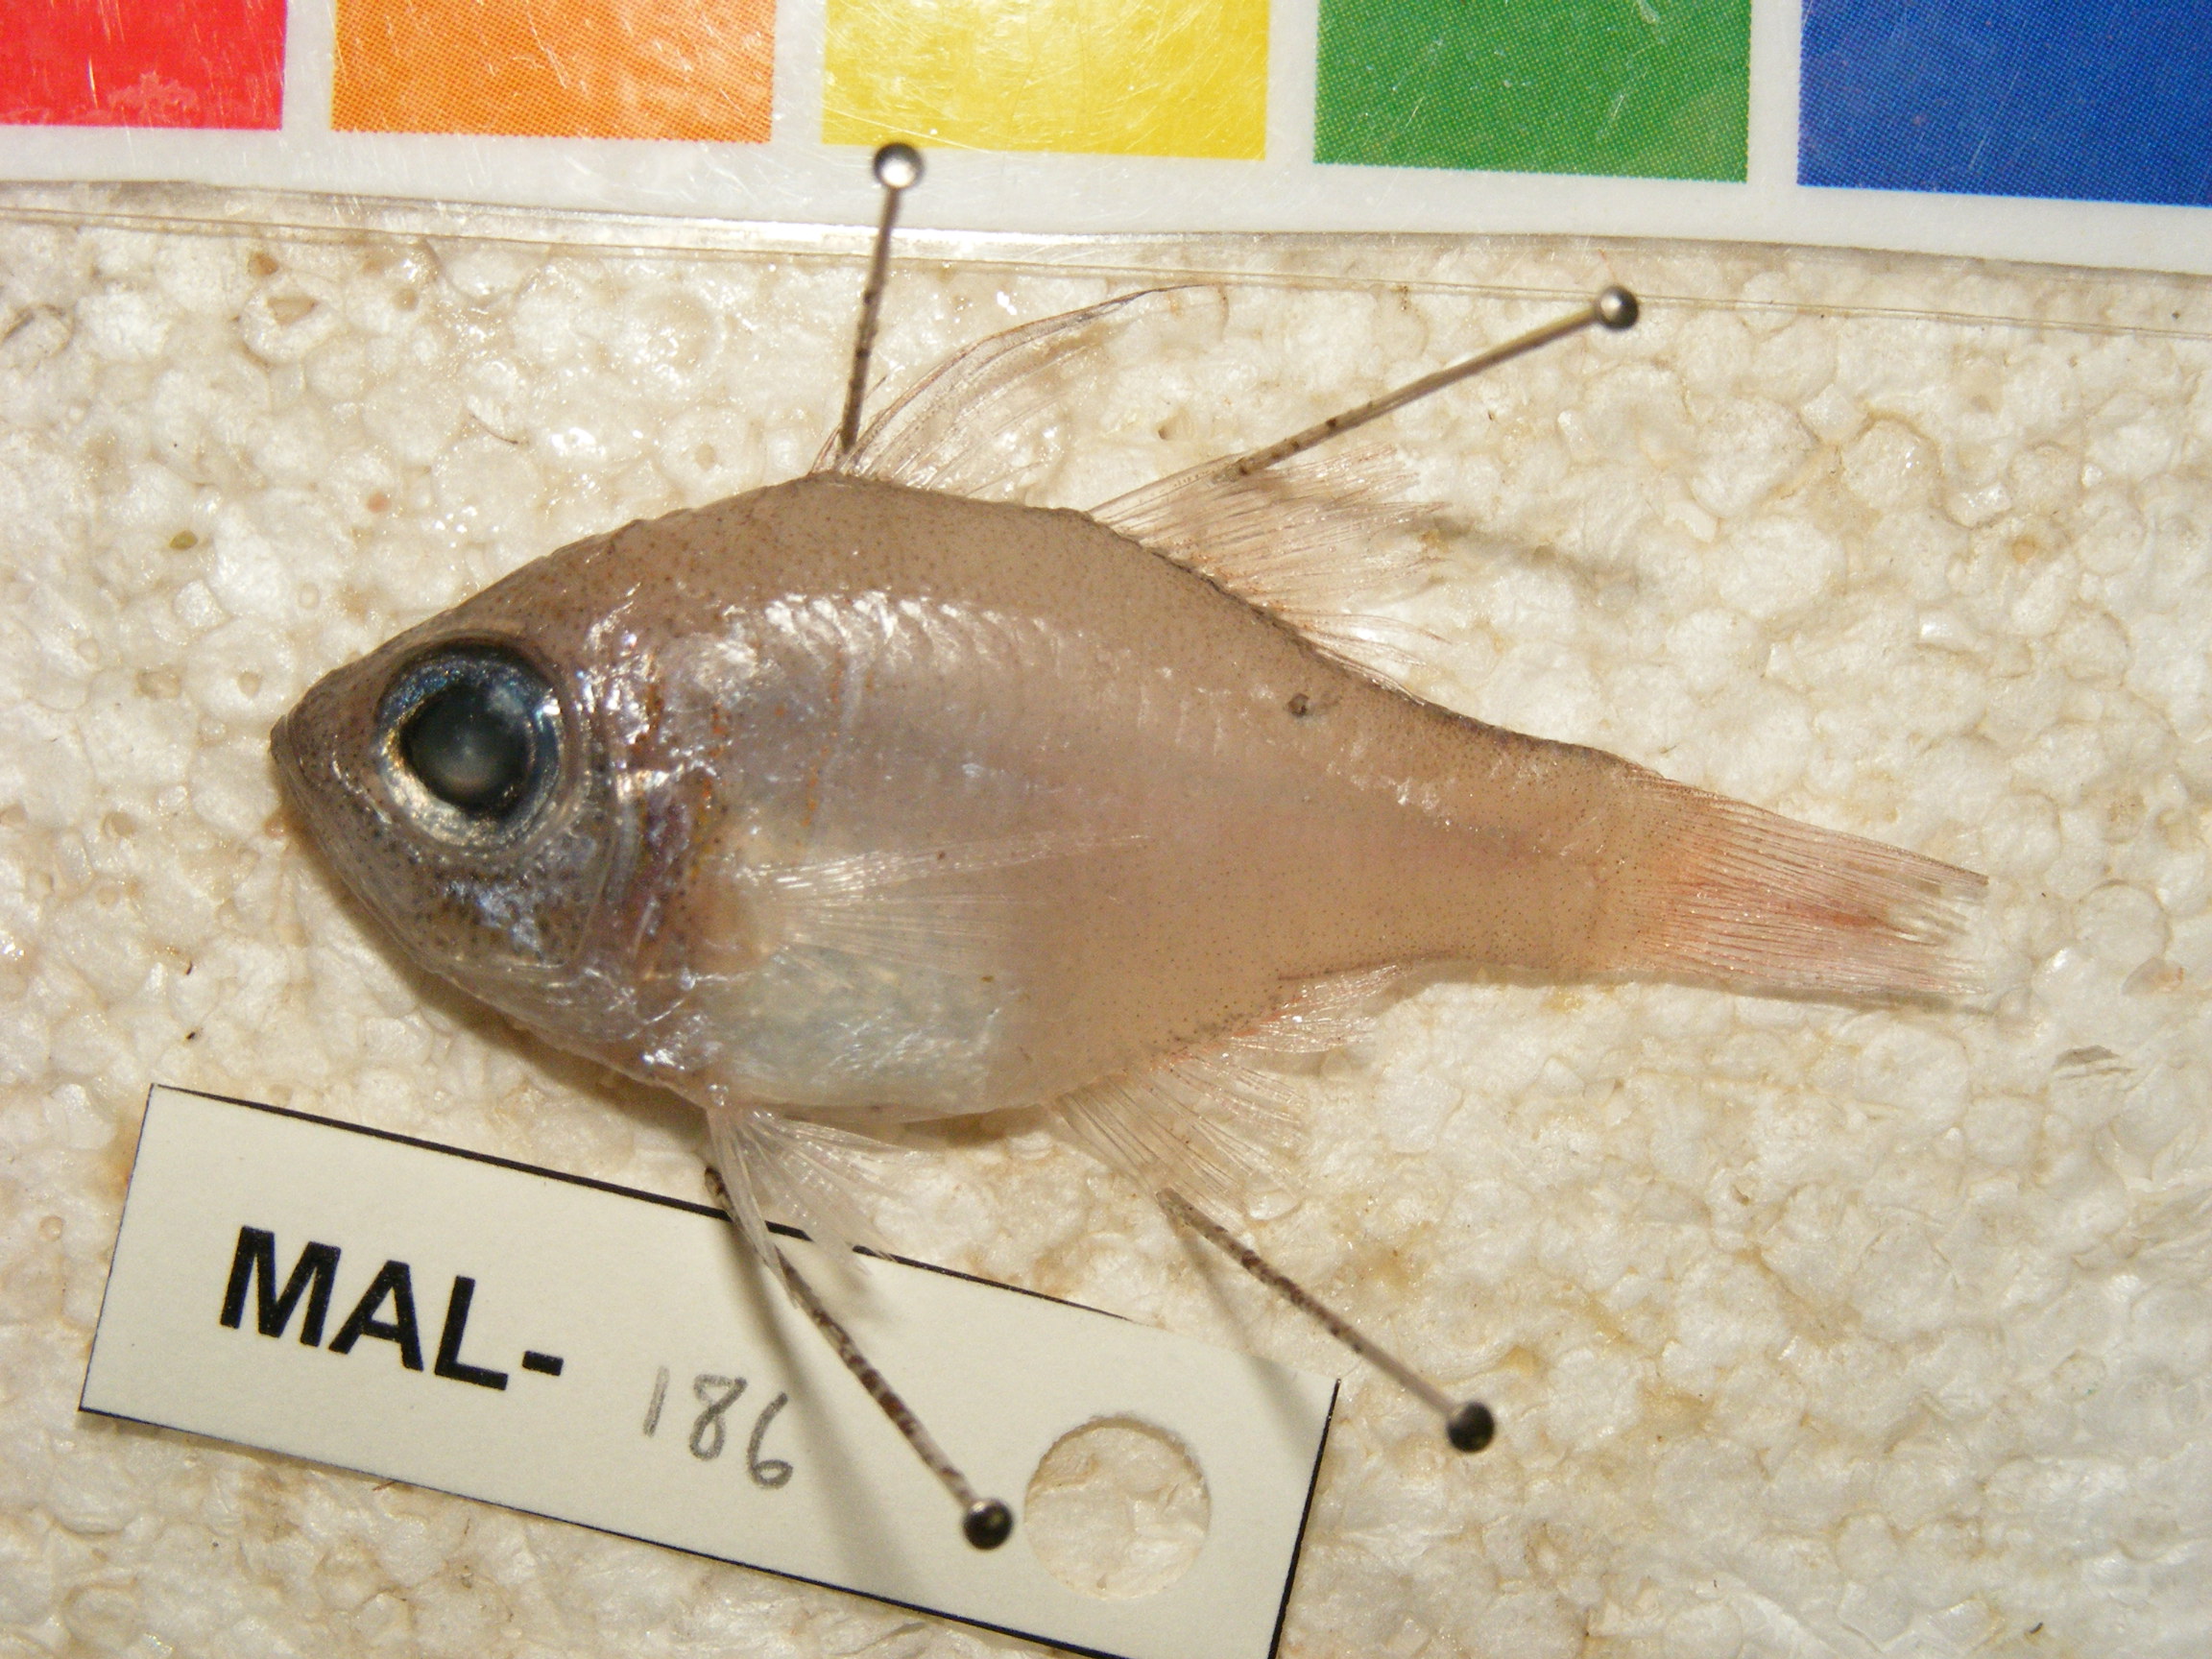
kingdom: Animalia
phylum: Chordata
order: Perciformes
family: Apogonidae
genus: Zoramia
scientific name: Zoramia leptacantha
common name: Threadfin cardinalfish
